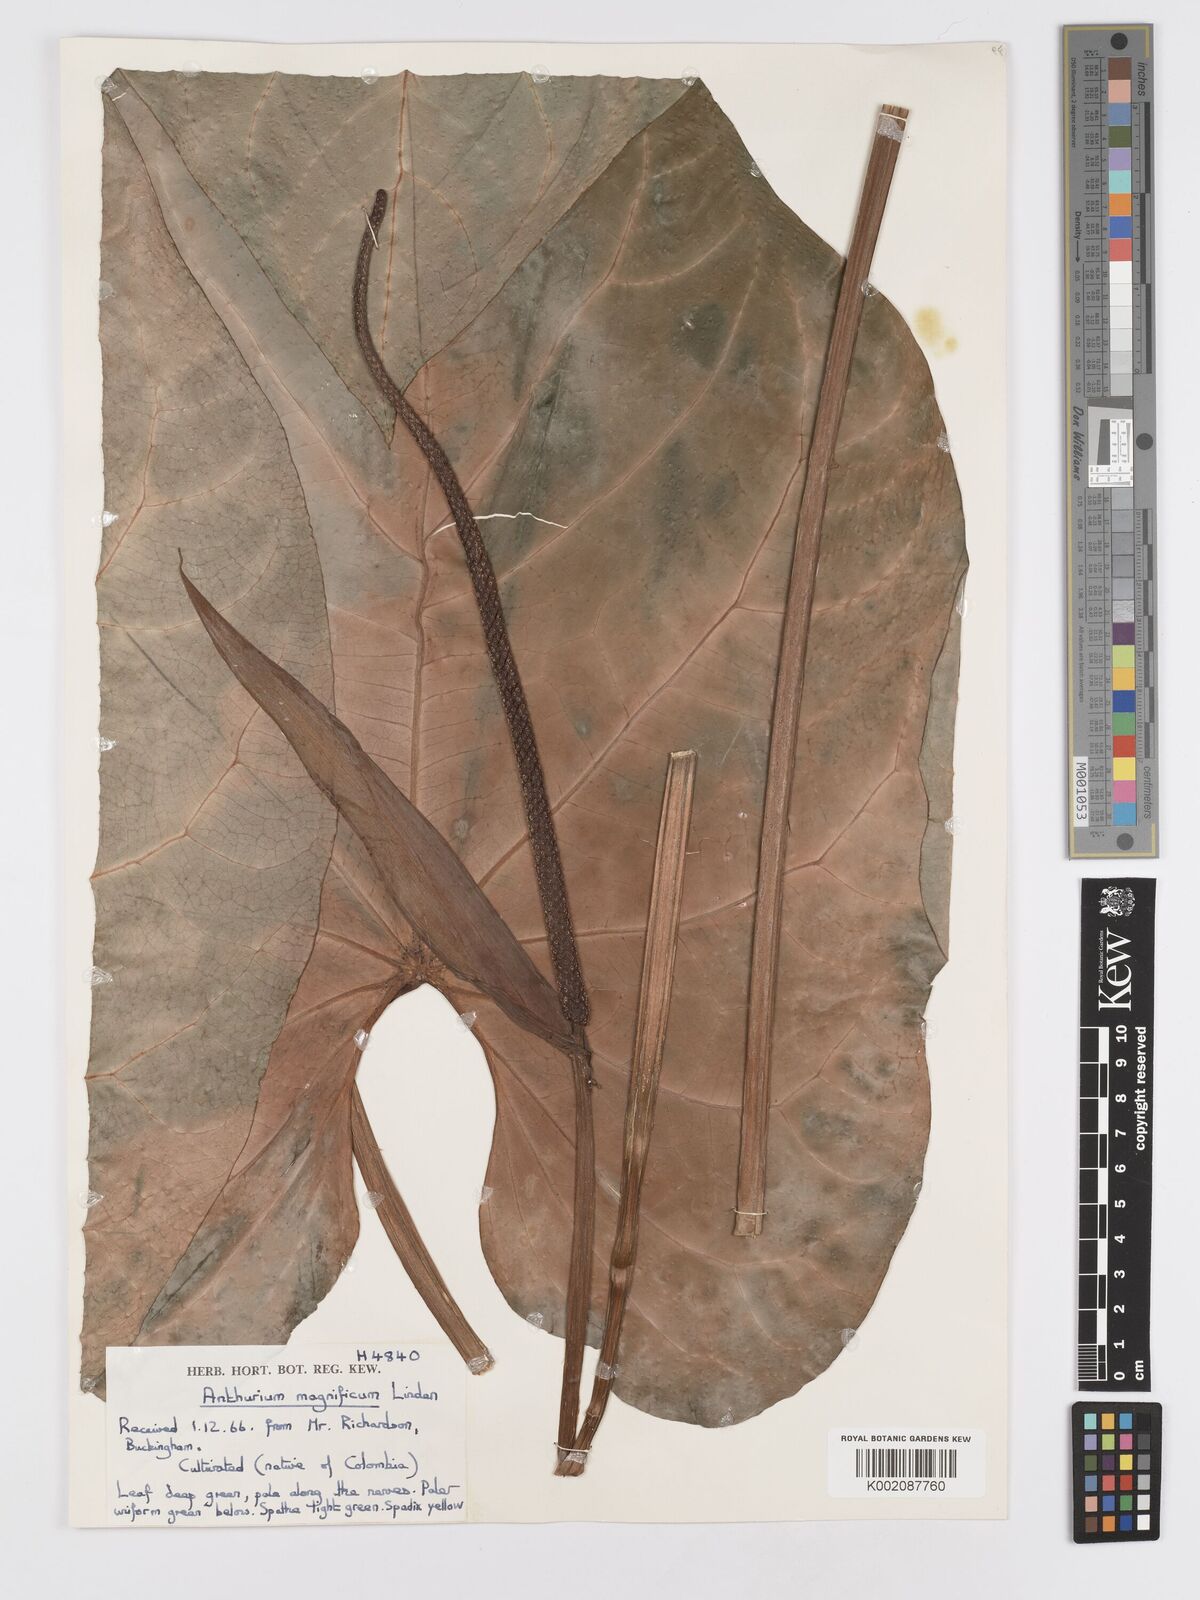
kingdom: Plantae
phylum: Tracheophyta
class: Liliopsida
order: Alismatales
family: Araceae
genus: Anthurium
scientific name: Anthurium magnificum
